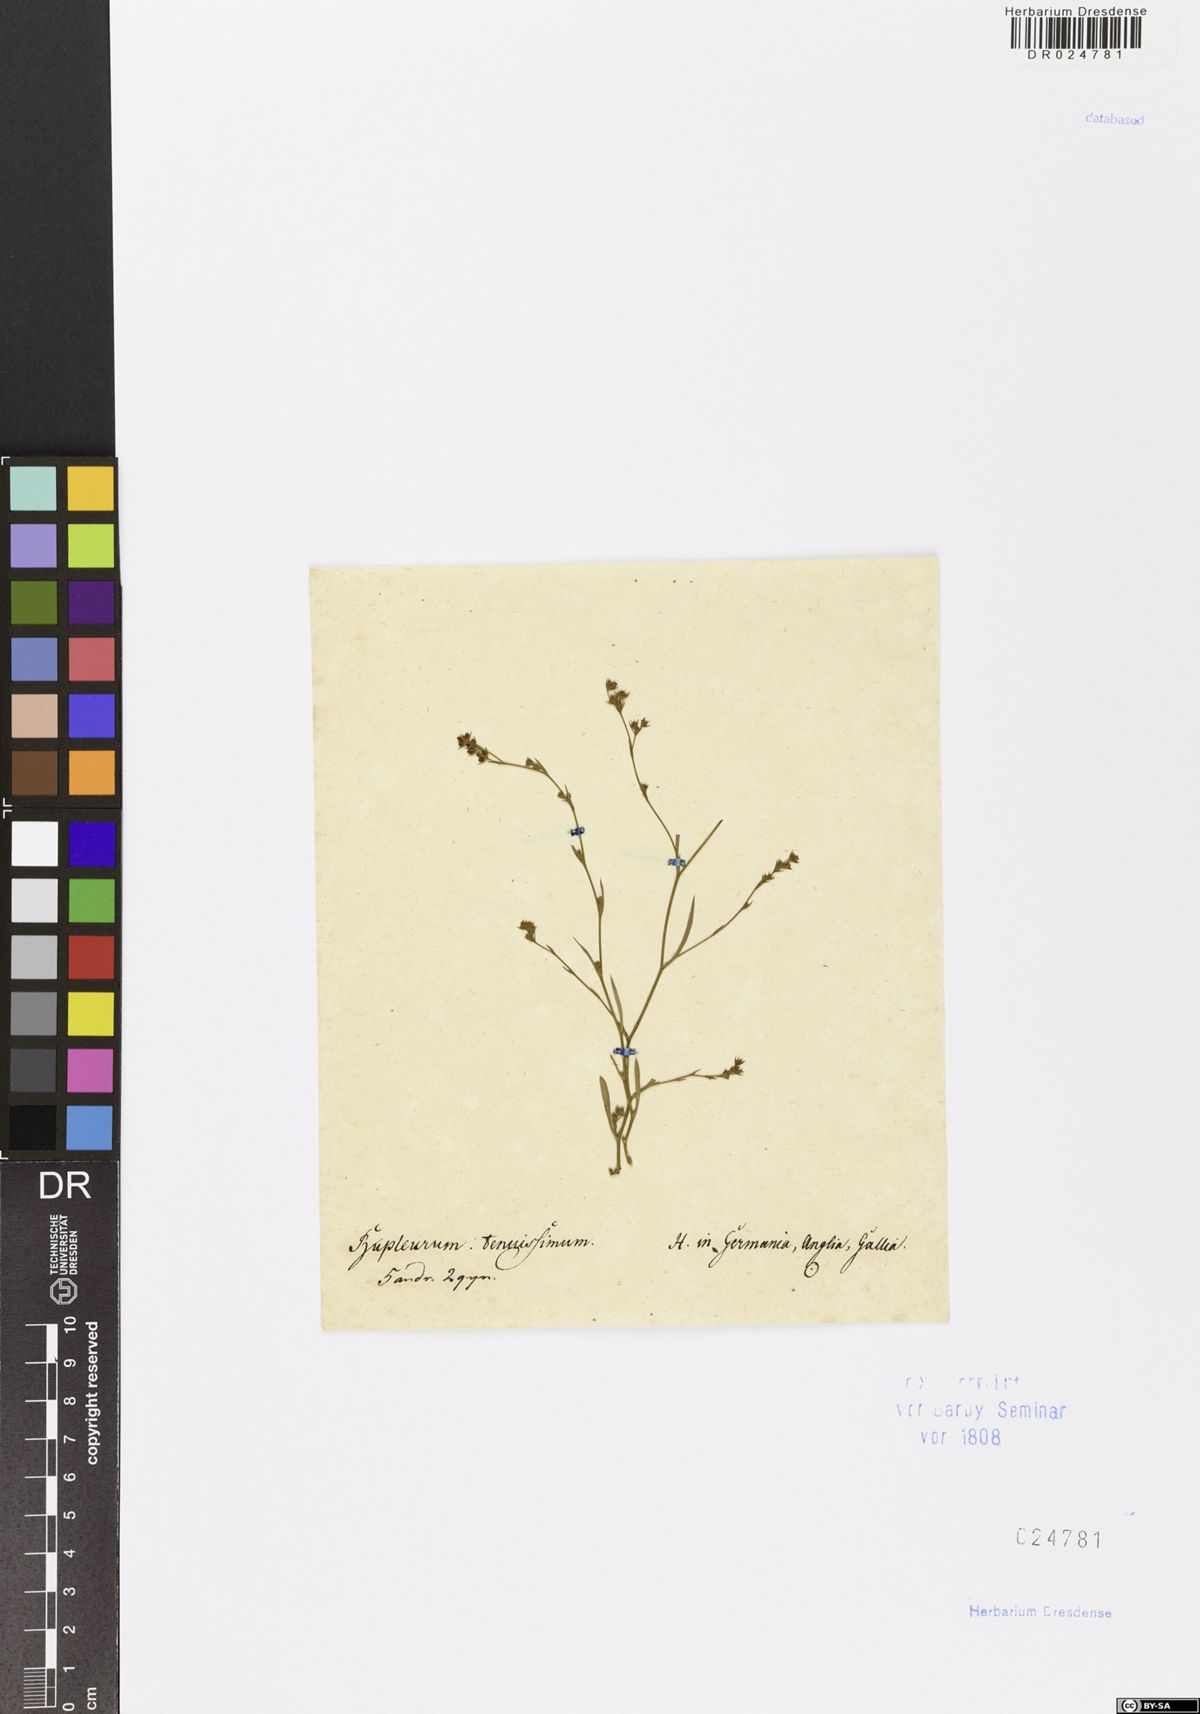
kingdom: Plantae
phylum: Tracheophyta
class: Magnoliopsida
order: Apiales
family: Apiaceae
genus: Bupleurum
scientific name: Bupleurum tenuissimum
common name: Slender hare's-ear
